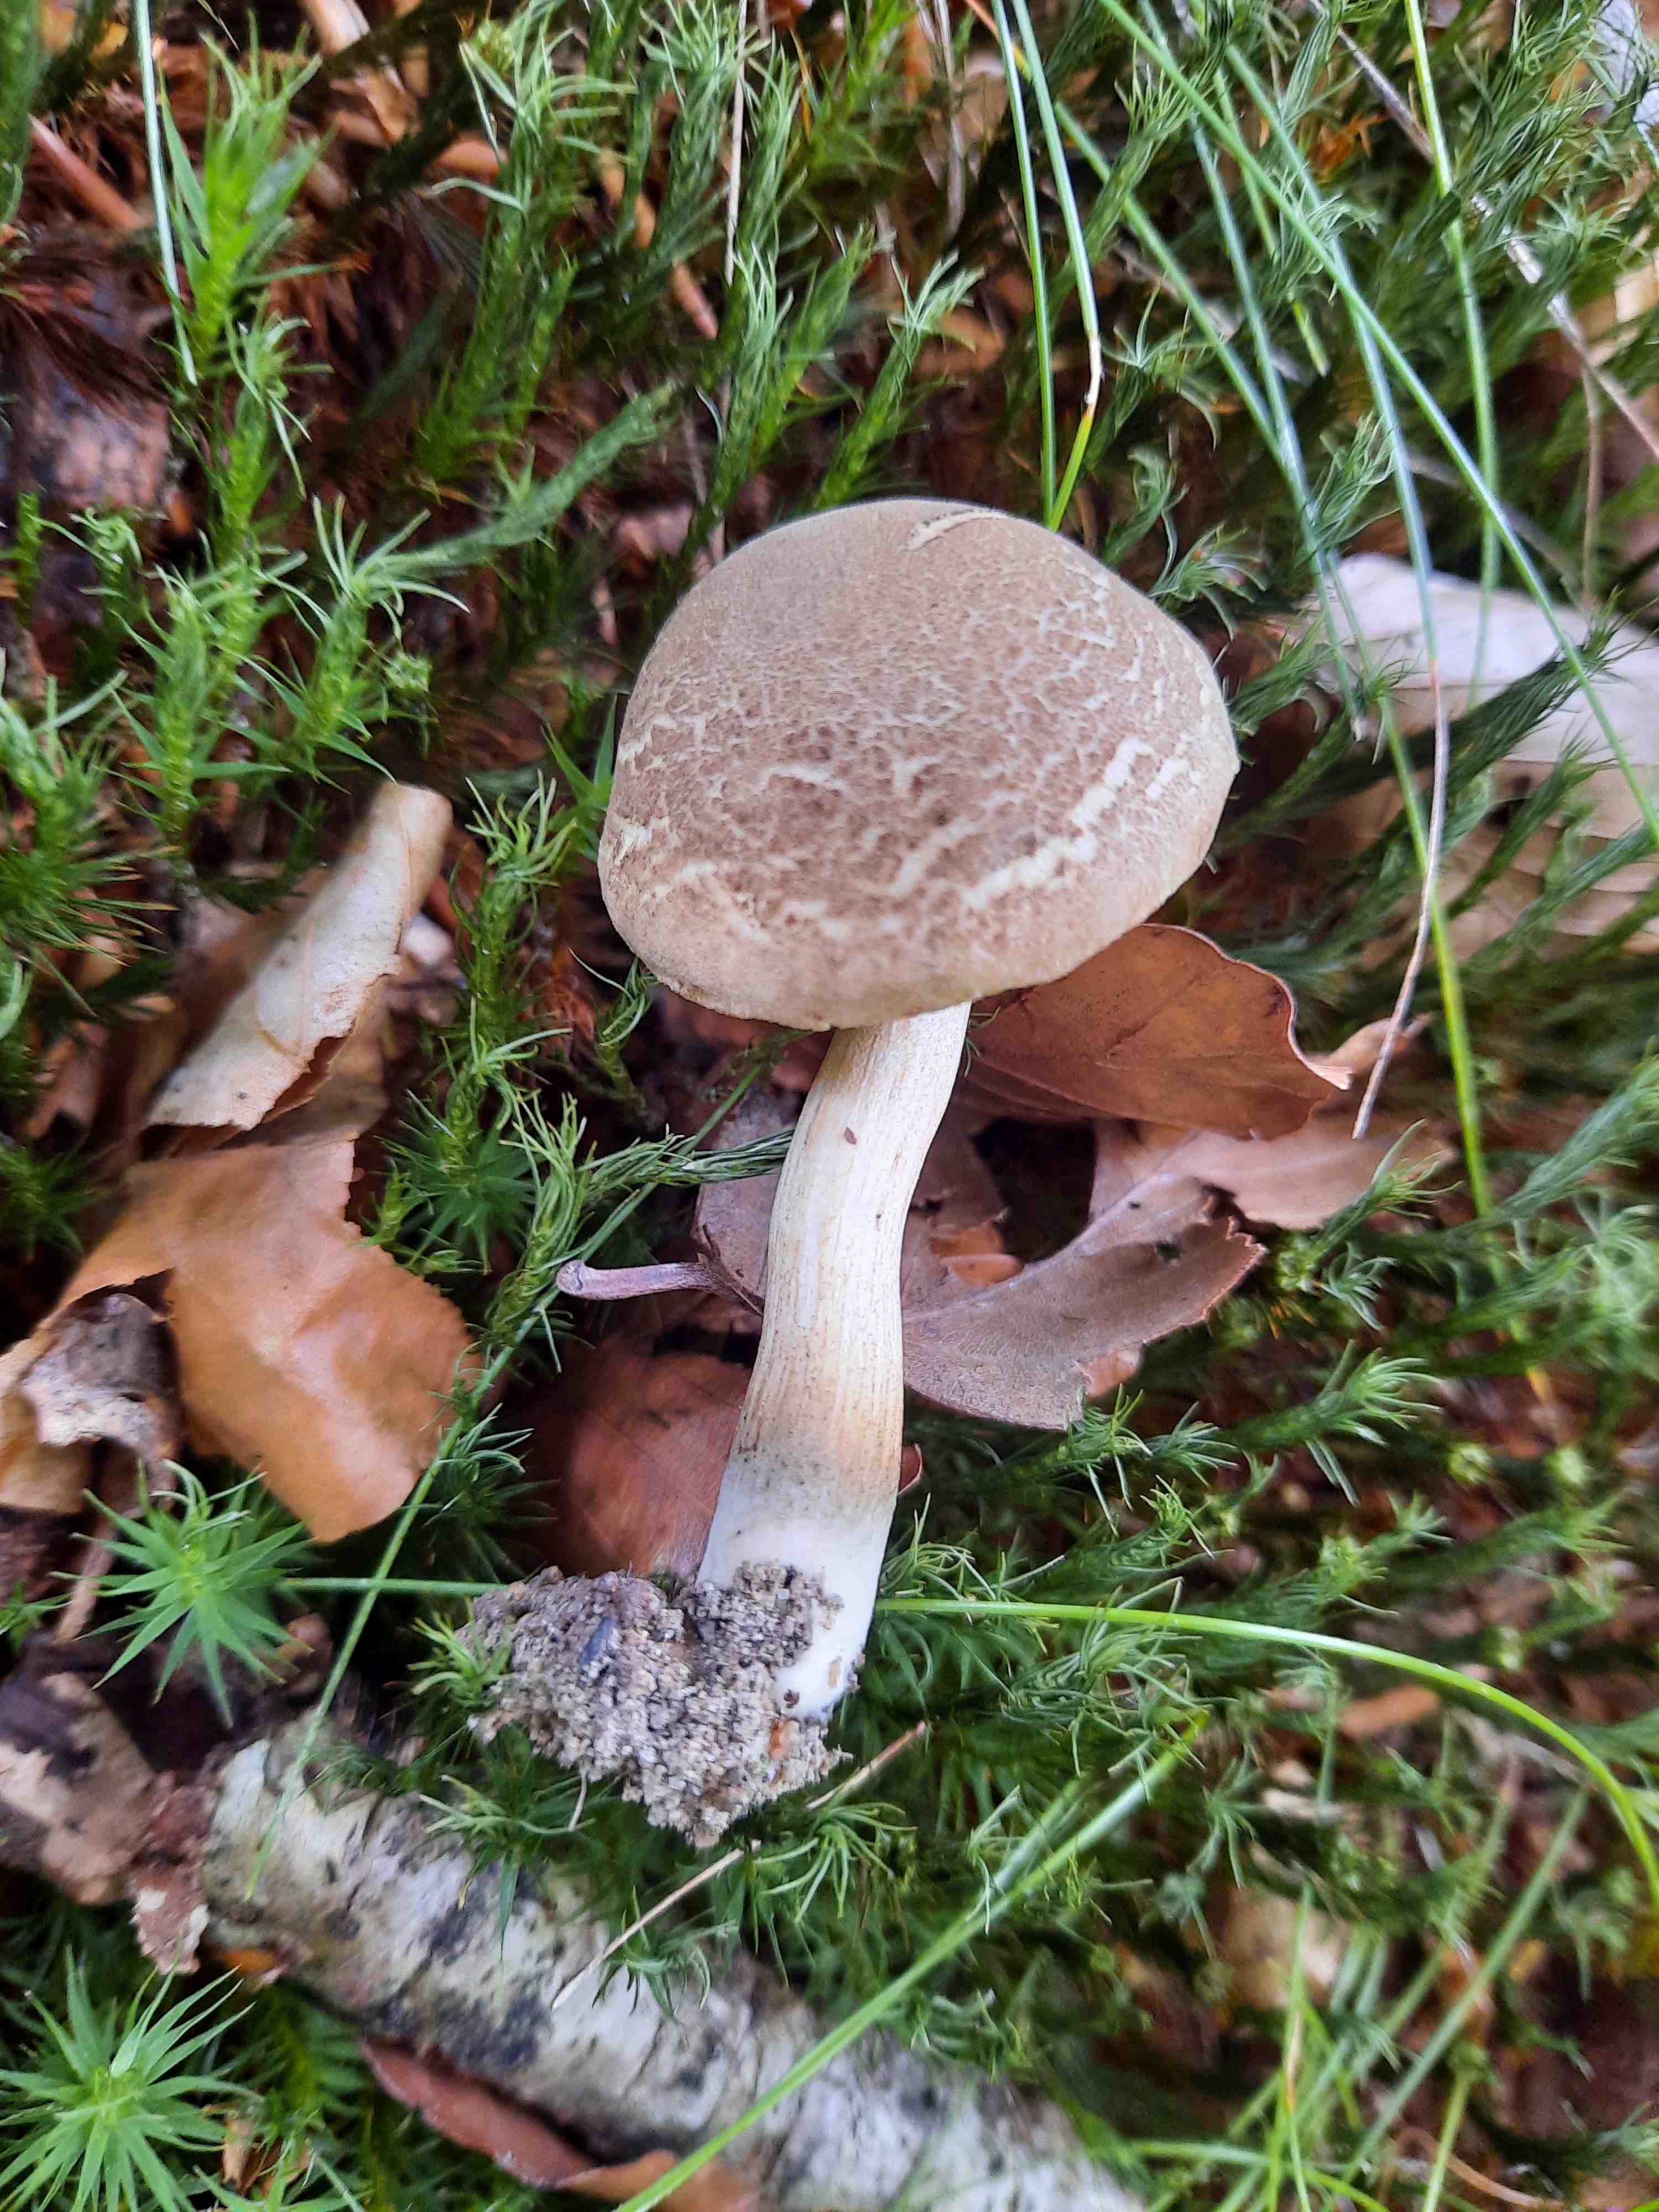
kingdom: Fungi
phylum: Basidiomycota
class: Agaricomycetes
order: Boletales
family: Boletaceae
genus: Xerocomellus
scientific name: Xerocomellus porosporus
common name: hvidsprukken rørhat
